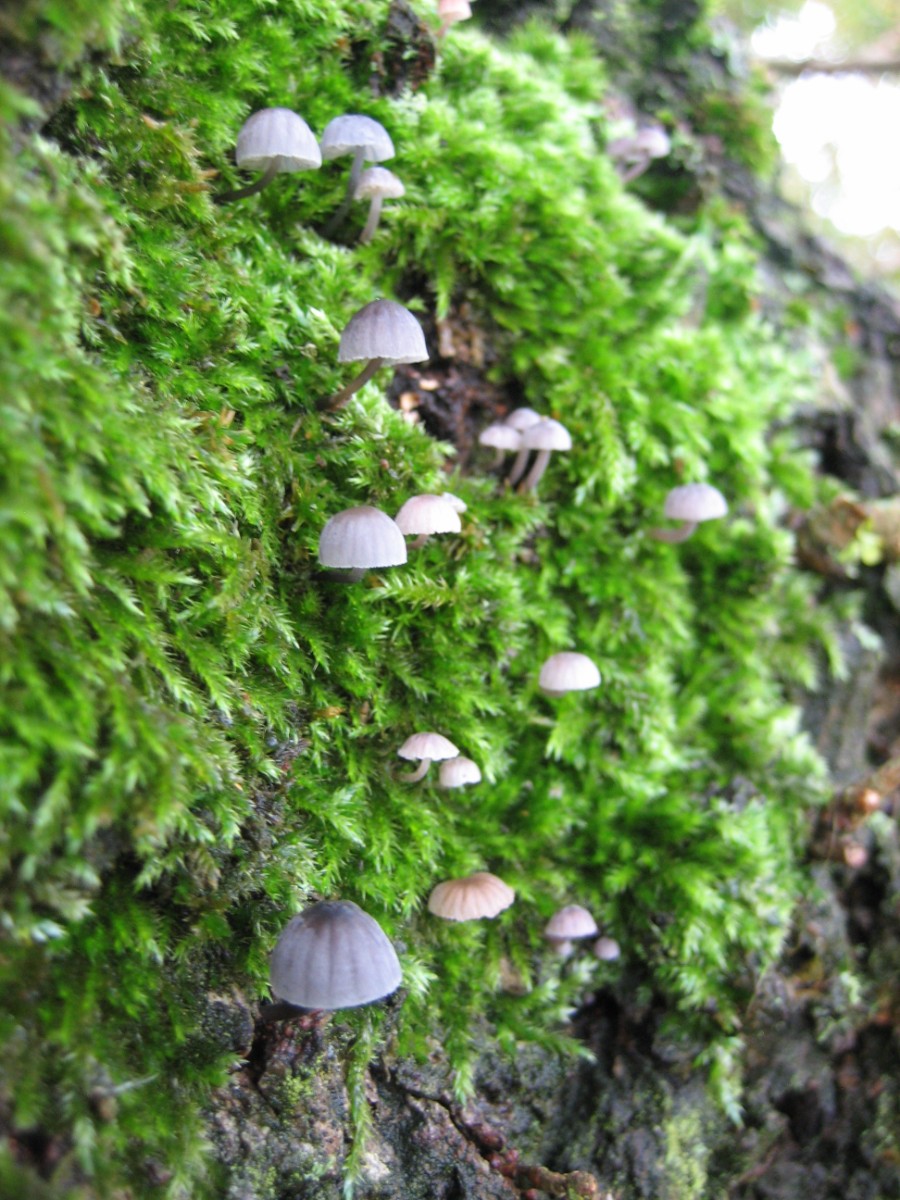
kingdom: Fungi
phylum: Basidiomycota
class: Agaricomycetes
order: Agaricales
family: Mycenaceae
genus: Mycena
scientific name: Mycena pseudocorticola
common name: gråblå bark-huesvamp
